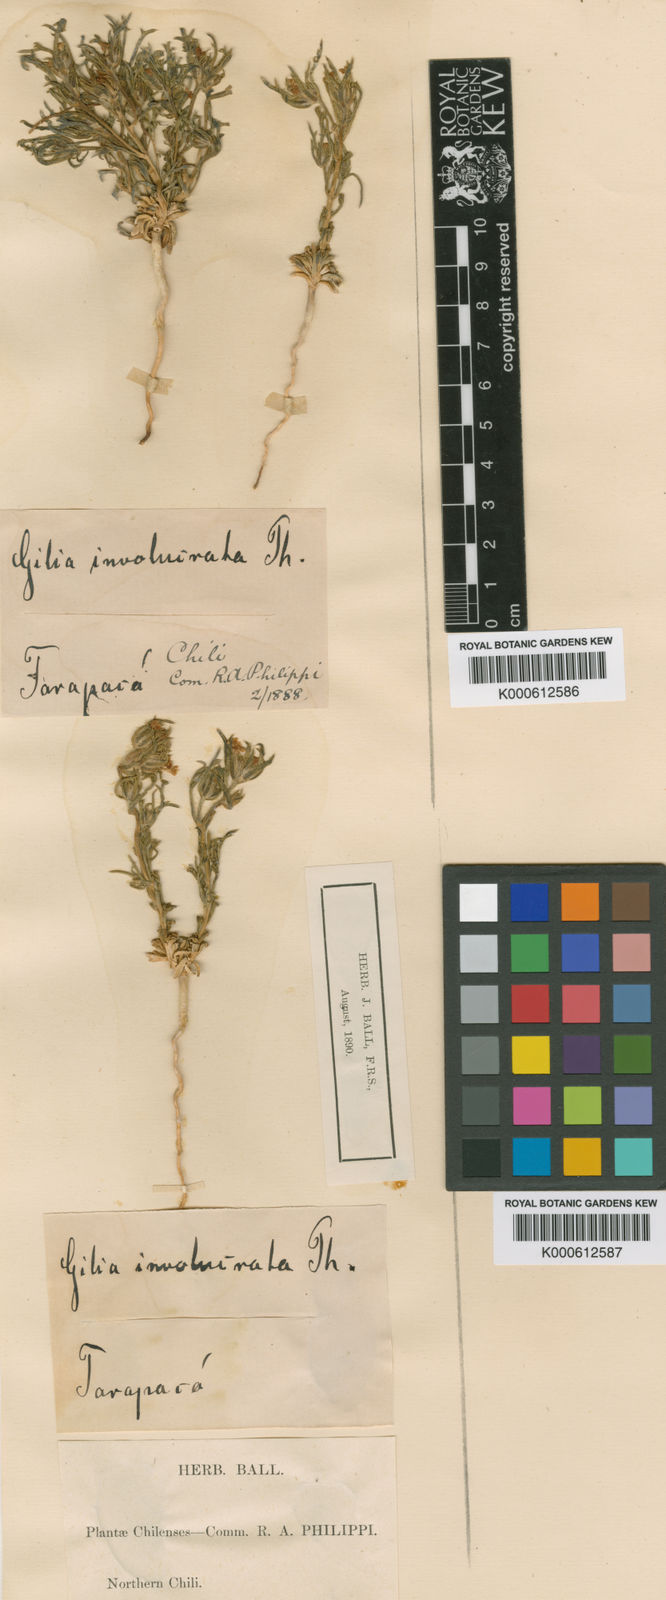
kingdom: Plantae
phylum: Tracheophyta
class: Magnoliopsida
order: Ericales
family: Polemoniaceae
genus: Ipomopsis
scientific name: Ipomopsis gossypifera
